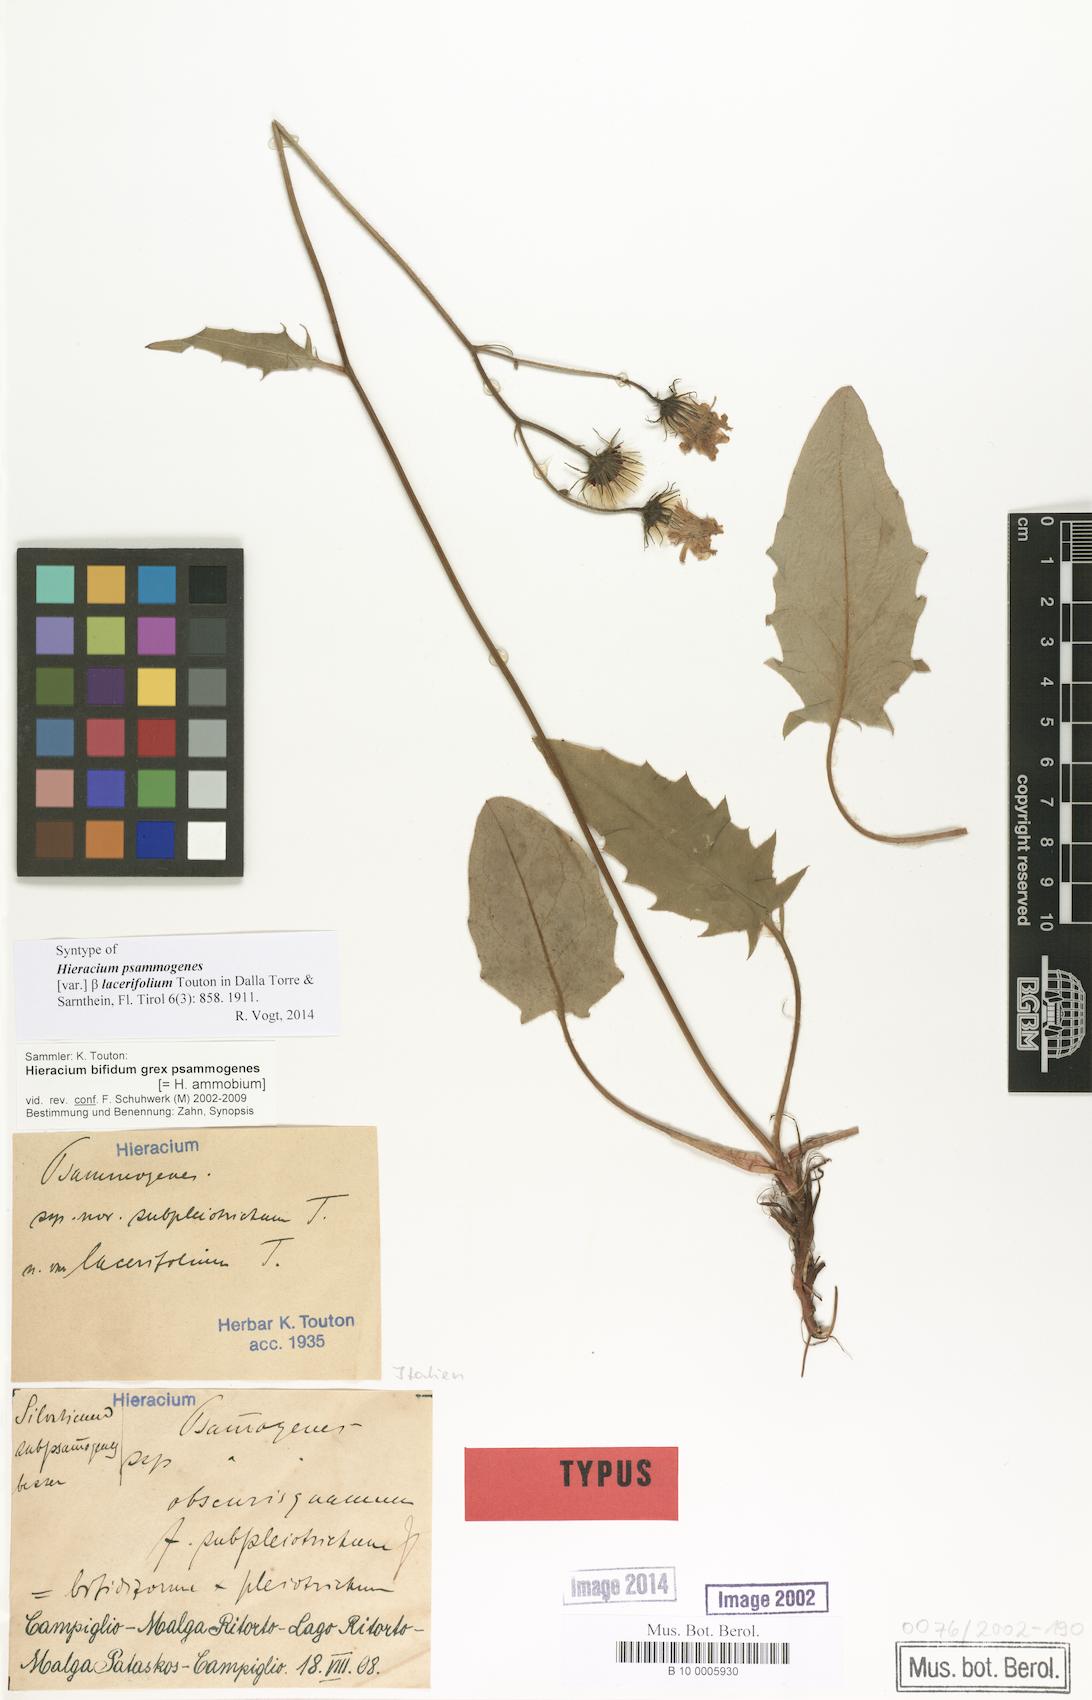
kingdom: Plantae
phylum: Tracheophyta
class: Magnoliopsida
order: Asterales
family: Asteraceae
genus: Hieracium
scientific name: Hieracium psammogenes
